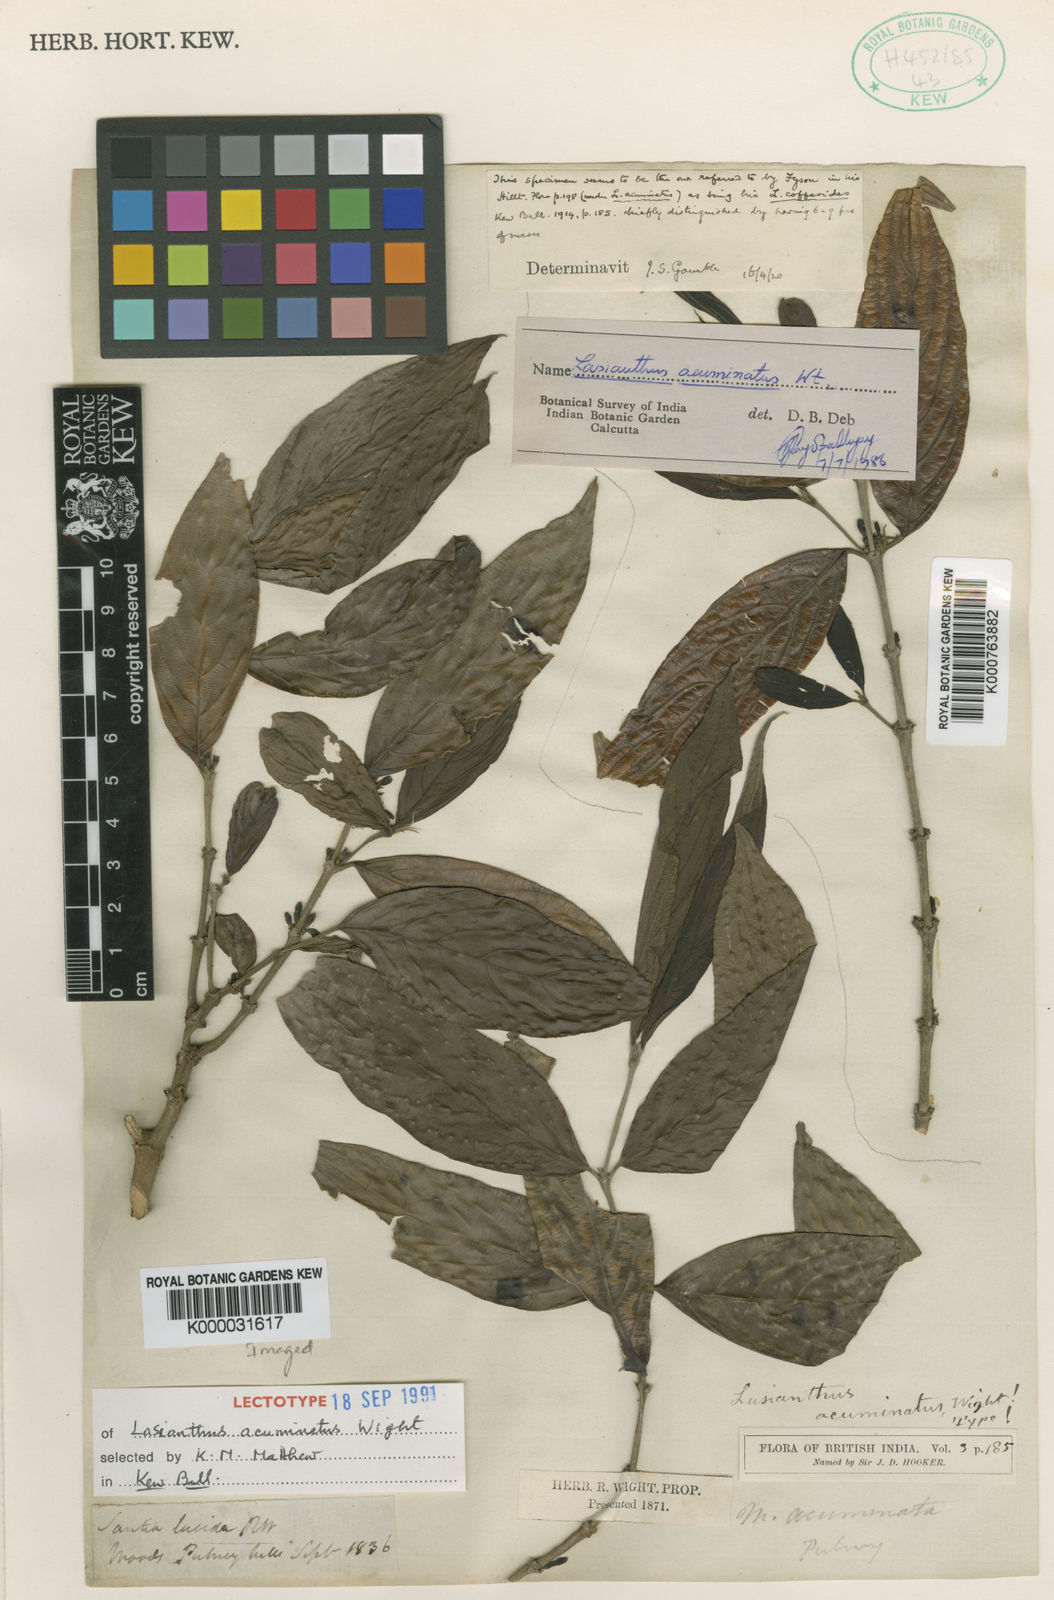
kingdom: Plantae
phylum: Tracheophyta
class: Magnoliopsida
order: Gentianales
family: Rubiaceae
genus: Lasianthus
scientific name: Lasianthus acuminatus
